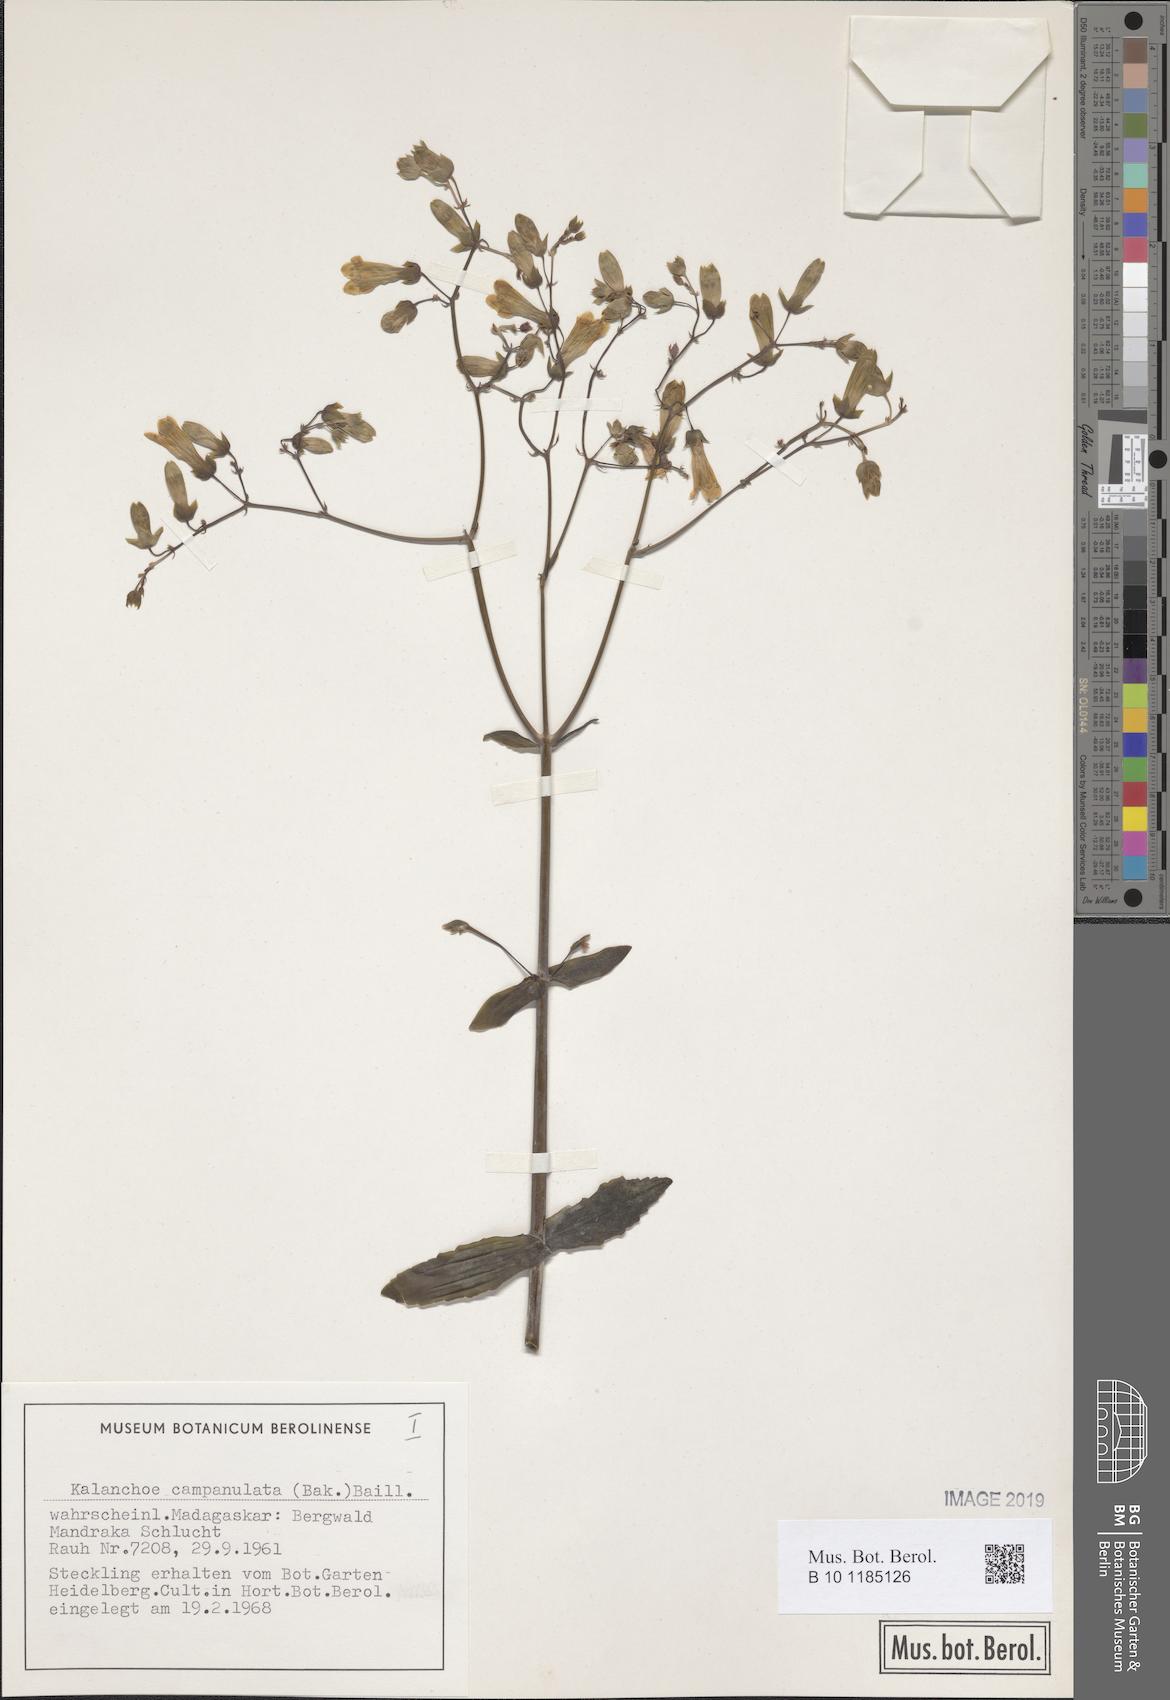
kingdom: Plantae
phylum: Tracheophyta
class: Magnoliopsida
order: Saxifragales
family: Crassulaceae
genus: Kalanchoe
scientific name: Kalanchoe campanulata
